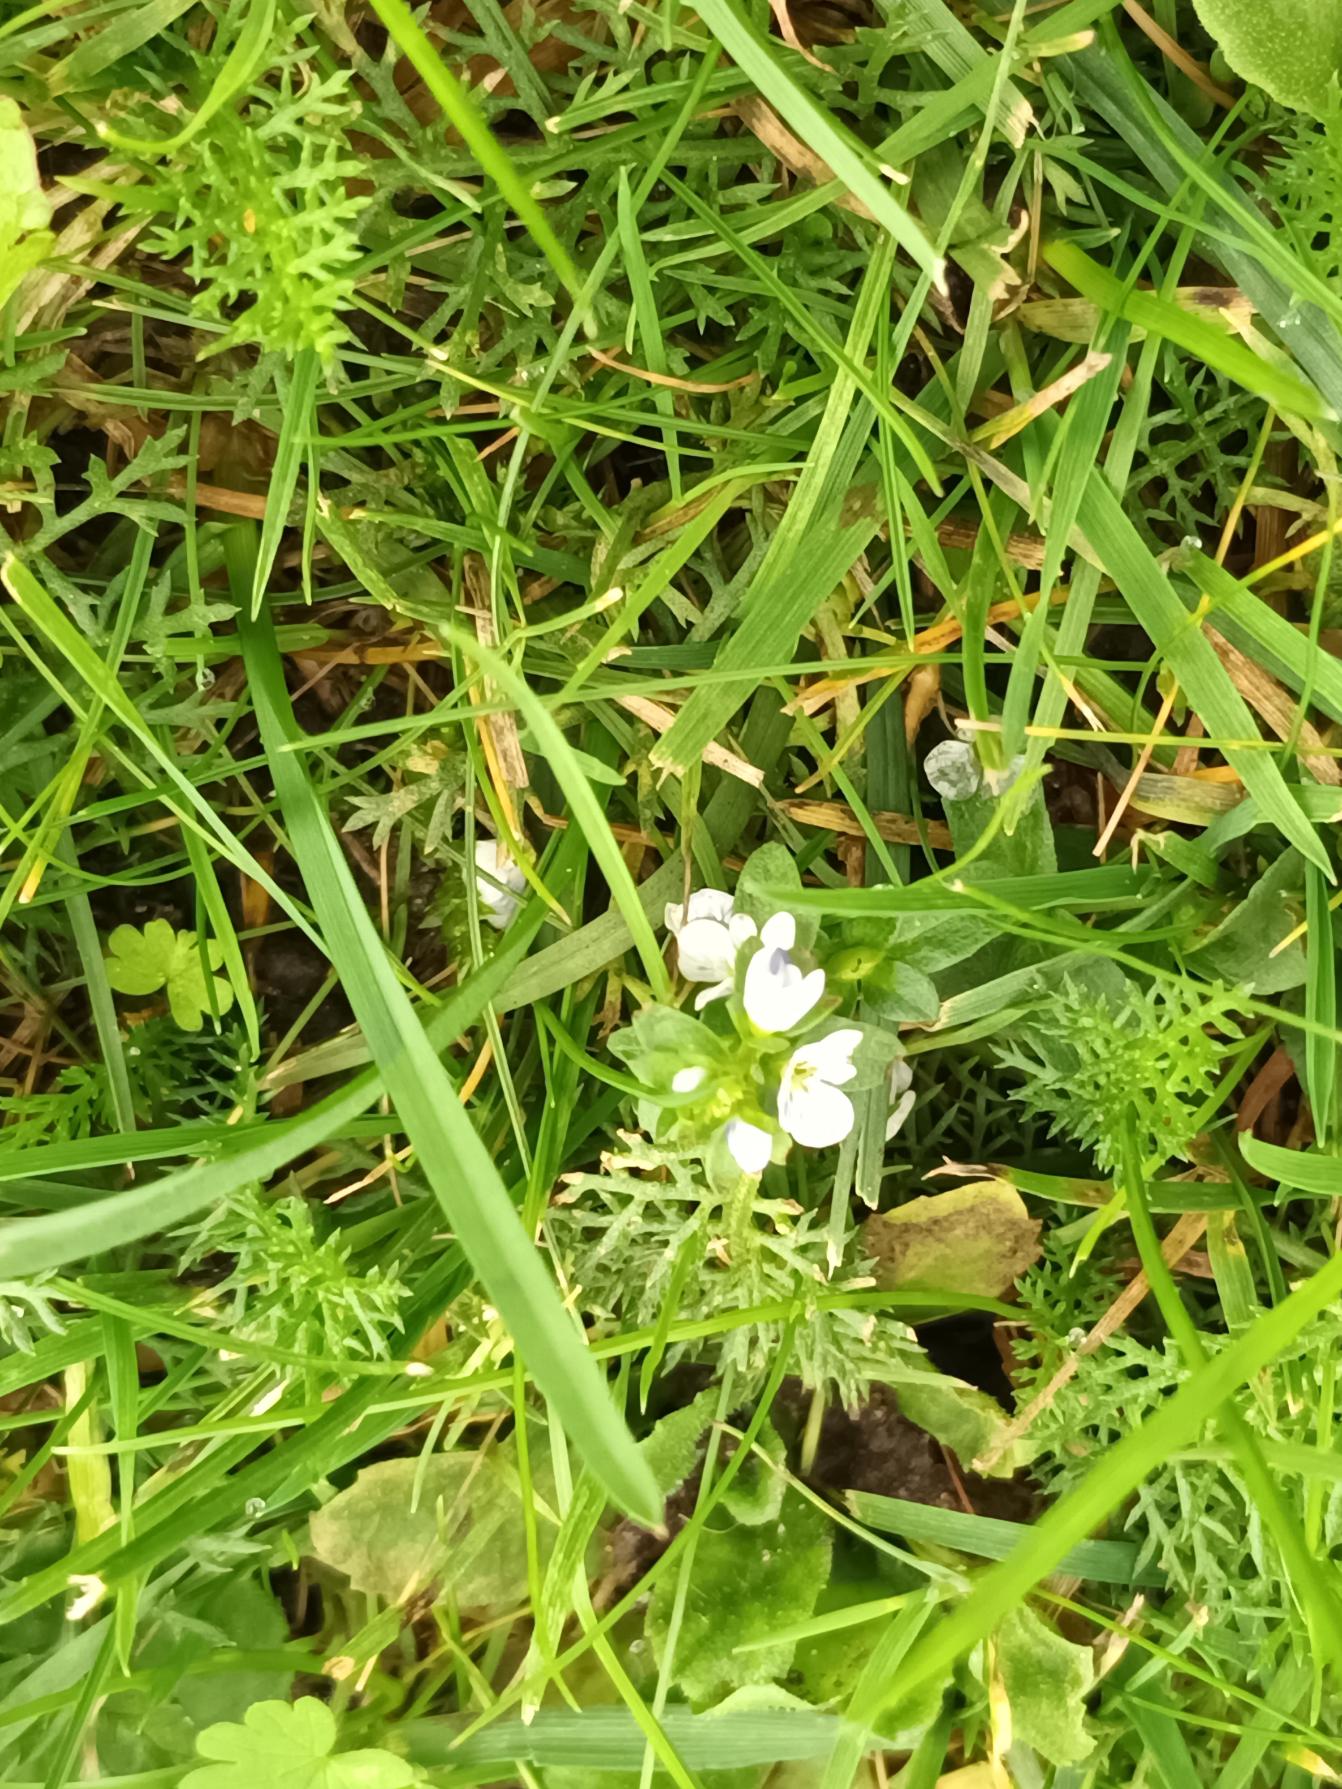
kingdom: Plantae
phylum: Tracheophyta
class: Magnoliopsida
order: Lamiales
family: Plantaginaceae
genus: Veronica
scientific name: Veronica serpyllifolia
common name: Glat ærenpris
